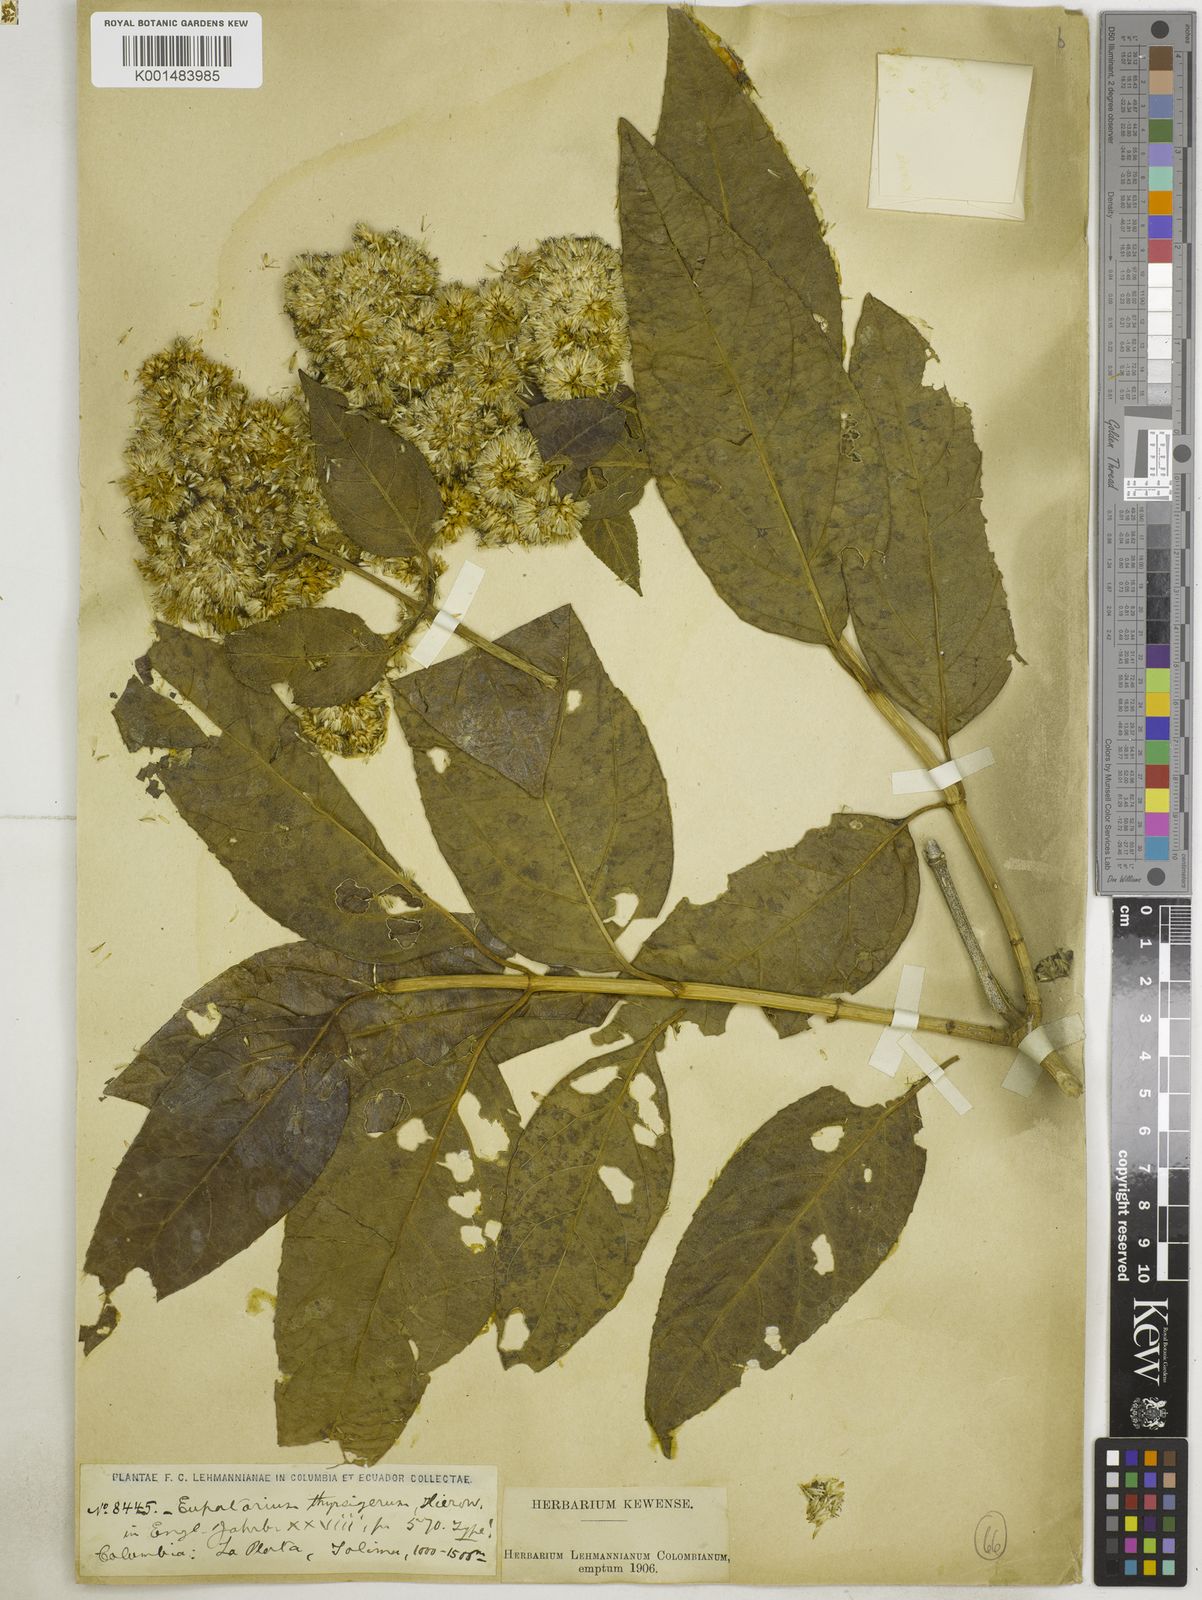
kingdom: Plantae
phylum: Tracheophyta
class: Magnoliopsida
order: Asterales
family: Asteraceae
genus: Critonia
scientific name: Critonia morifolia
